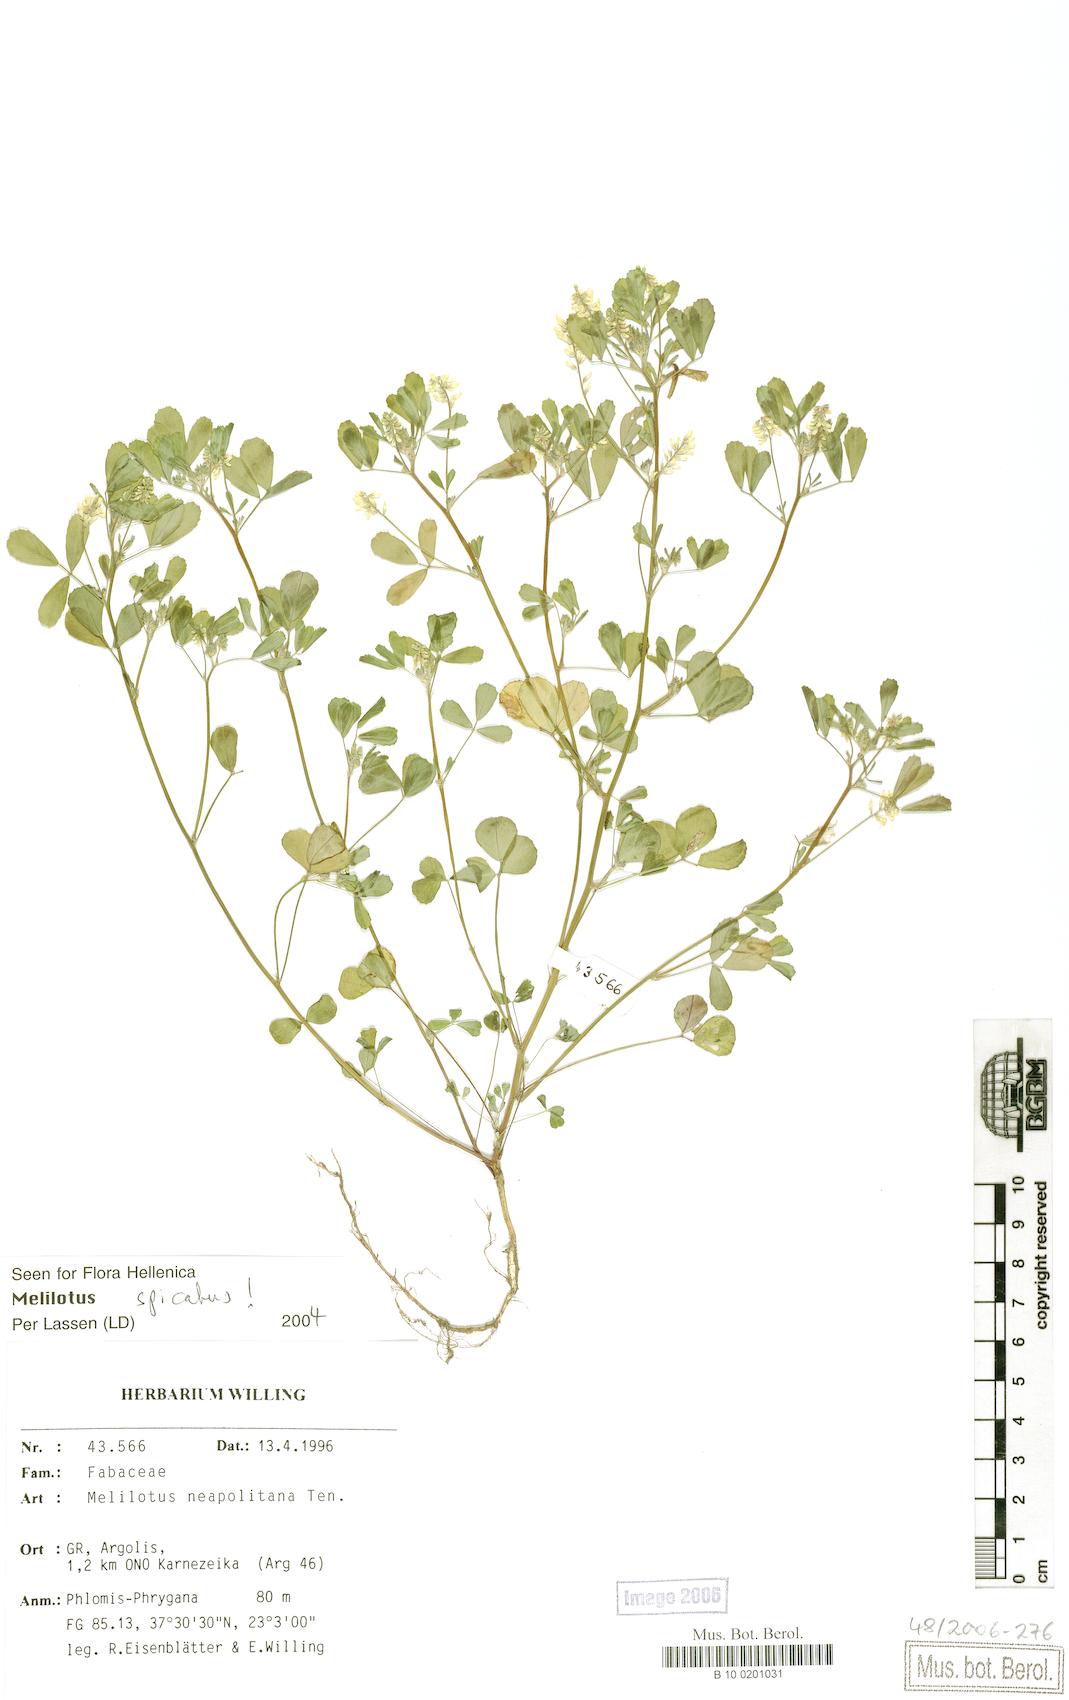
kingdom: Plantae
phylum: Tracheophyta
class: Magnoliopsida
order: Fabales
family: Fabaceae
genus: Melilotus
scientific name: Melilotus neapolitanus
